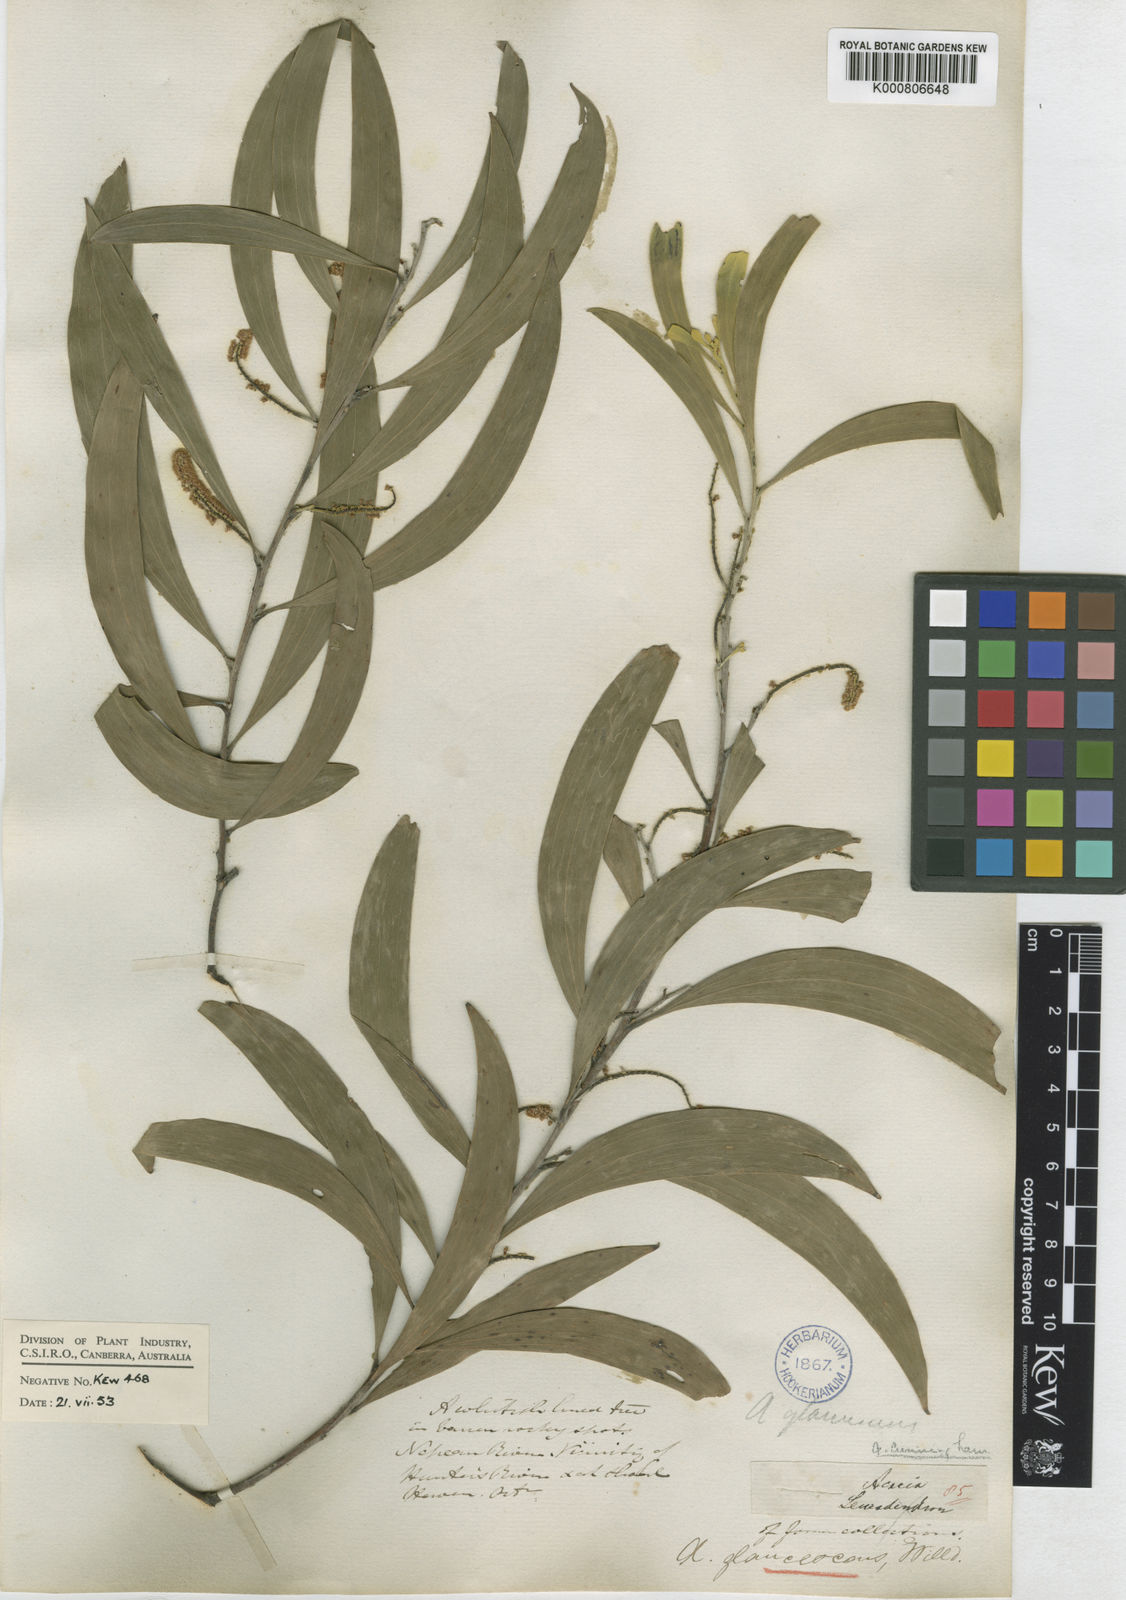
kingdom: Plantae
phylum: Tracheophyta
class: Magnoliopsida
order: Fabales
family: Fabaceae
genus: Acacia
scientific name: Acacia binervia
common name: Coast myall
